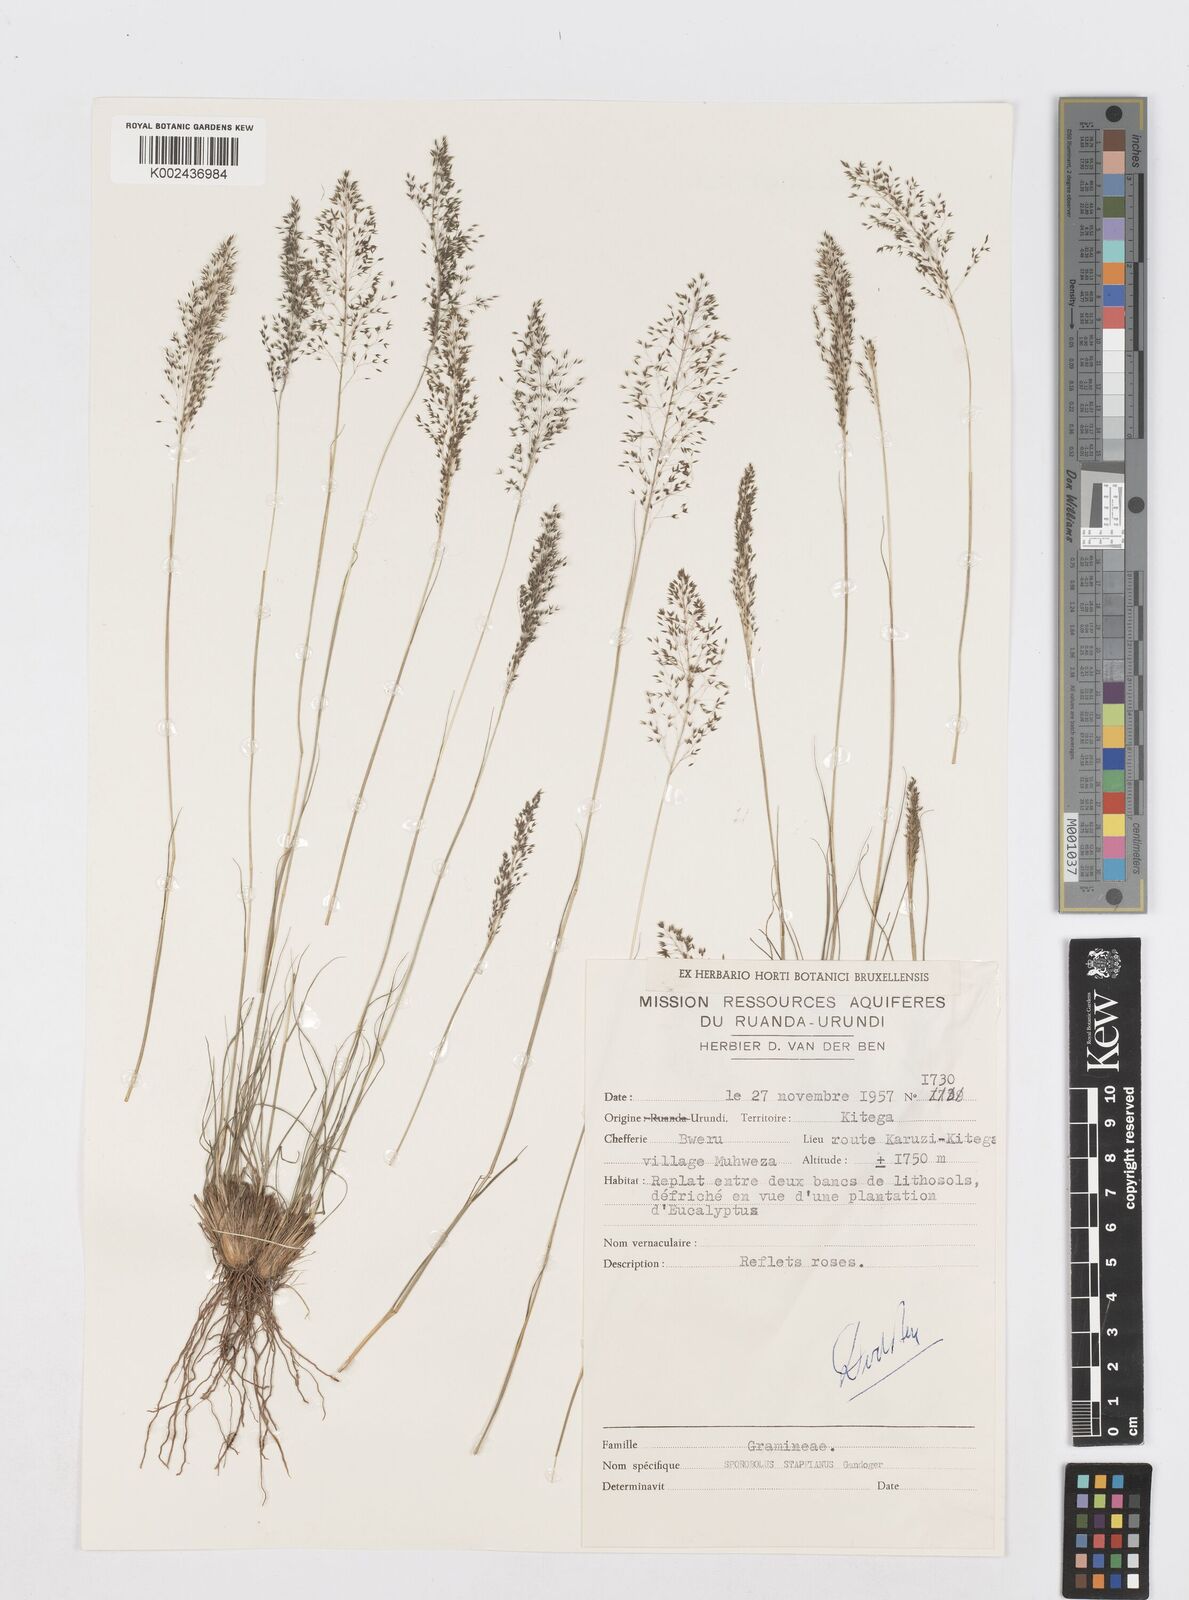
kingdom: Plantae
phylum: Tracheophyta
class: Liliopsida
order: Poales
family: Poaceae
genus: Sporobolus
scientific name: Sporobolus stapfianus
